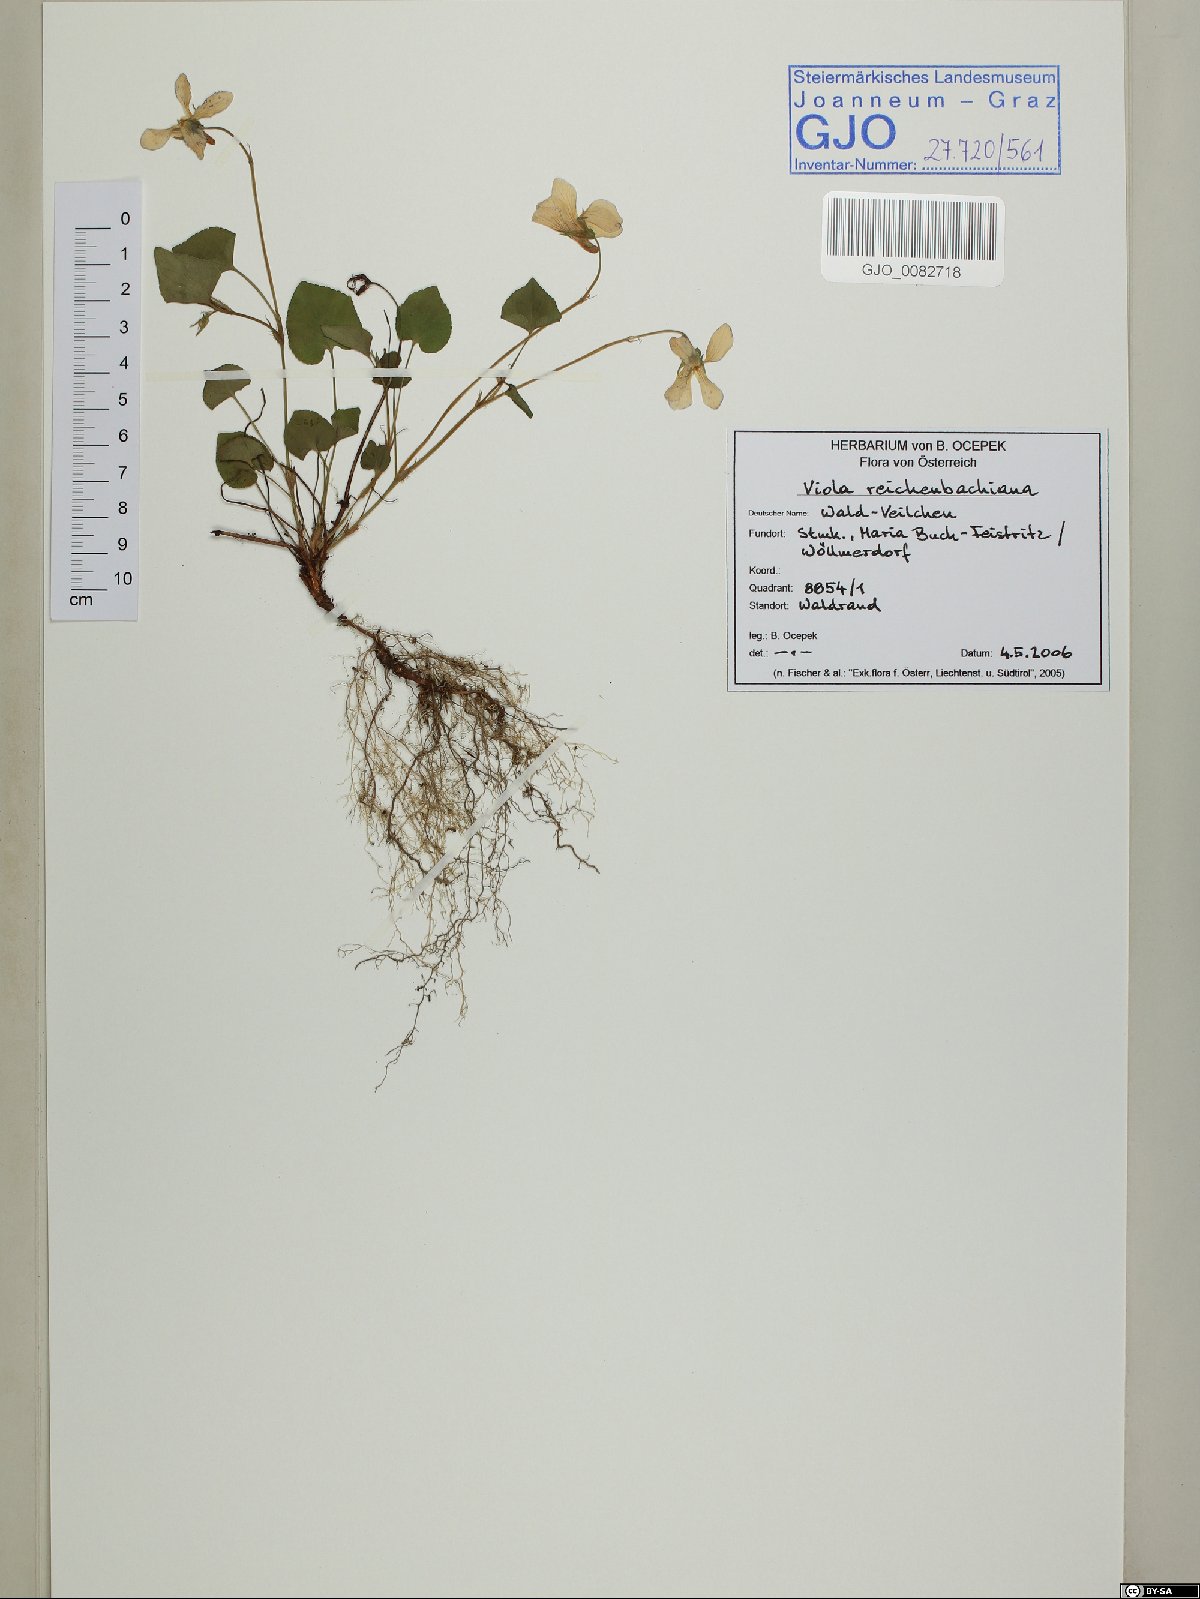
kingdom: Plantae
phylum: Tracheophyta
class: Magnoliopsida
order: Malpighiales
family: Violaceae
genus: Viola
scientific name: Viola reichenbachiana
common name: Early dog-violet
